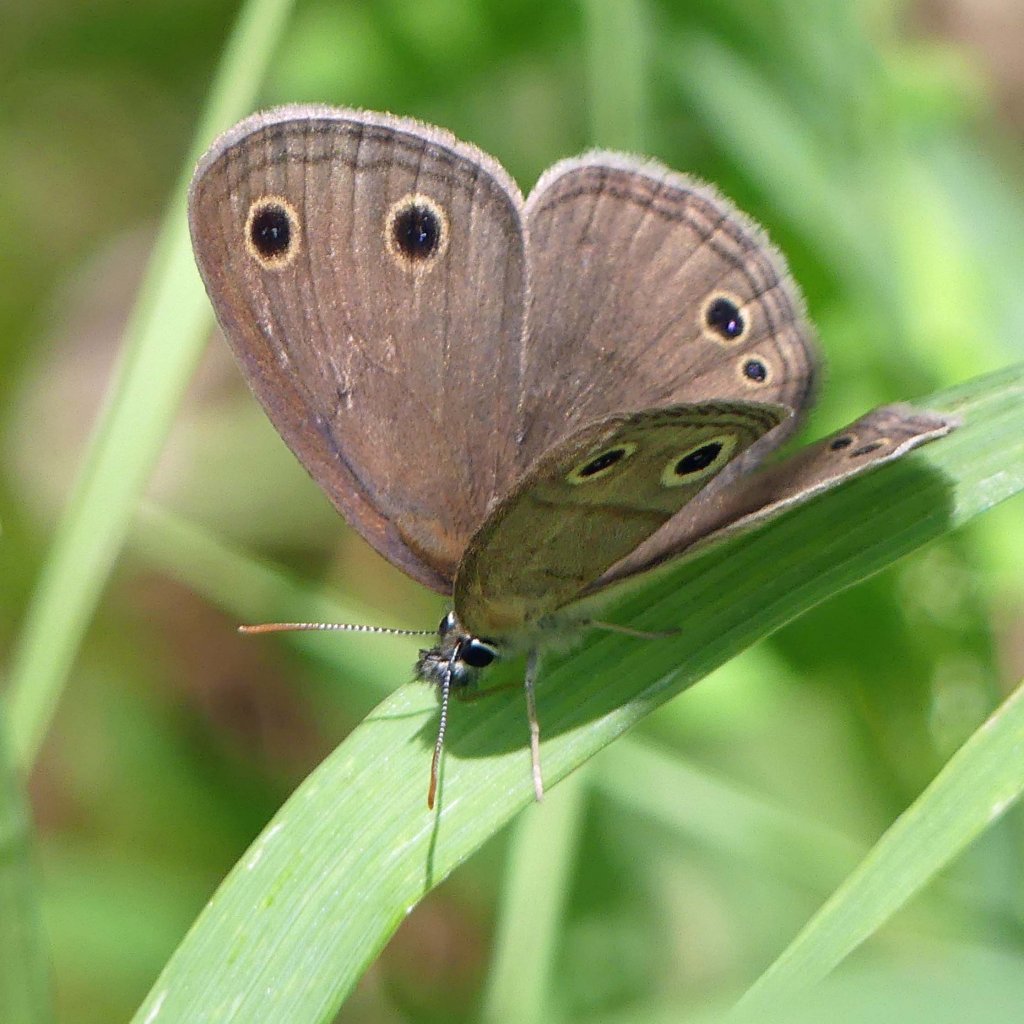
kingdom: Animalia
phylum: Arthropoda
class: Insecta
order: Lepidoptera
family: Nymphalidae
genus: Euptychia
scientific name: Euptychia cymela
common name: Little Wood Satyr
